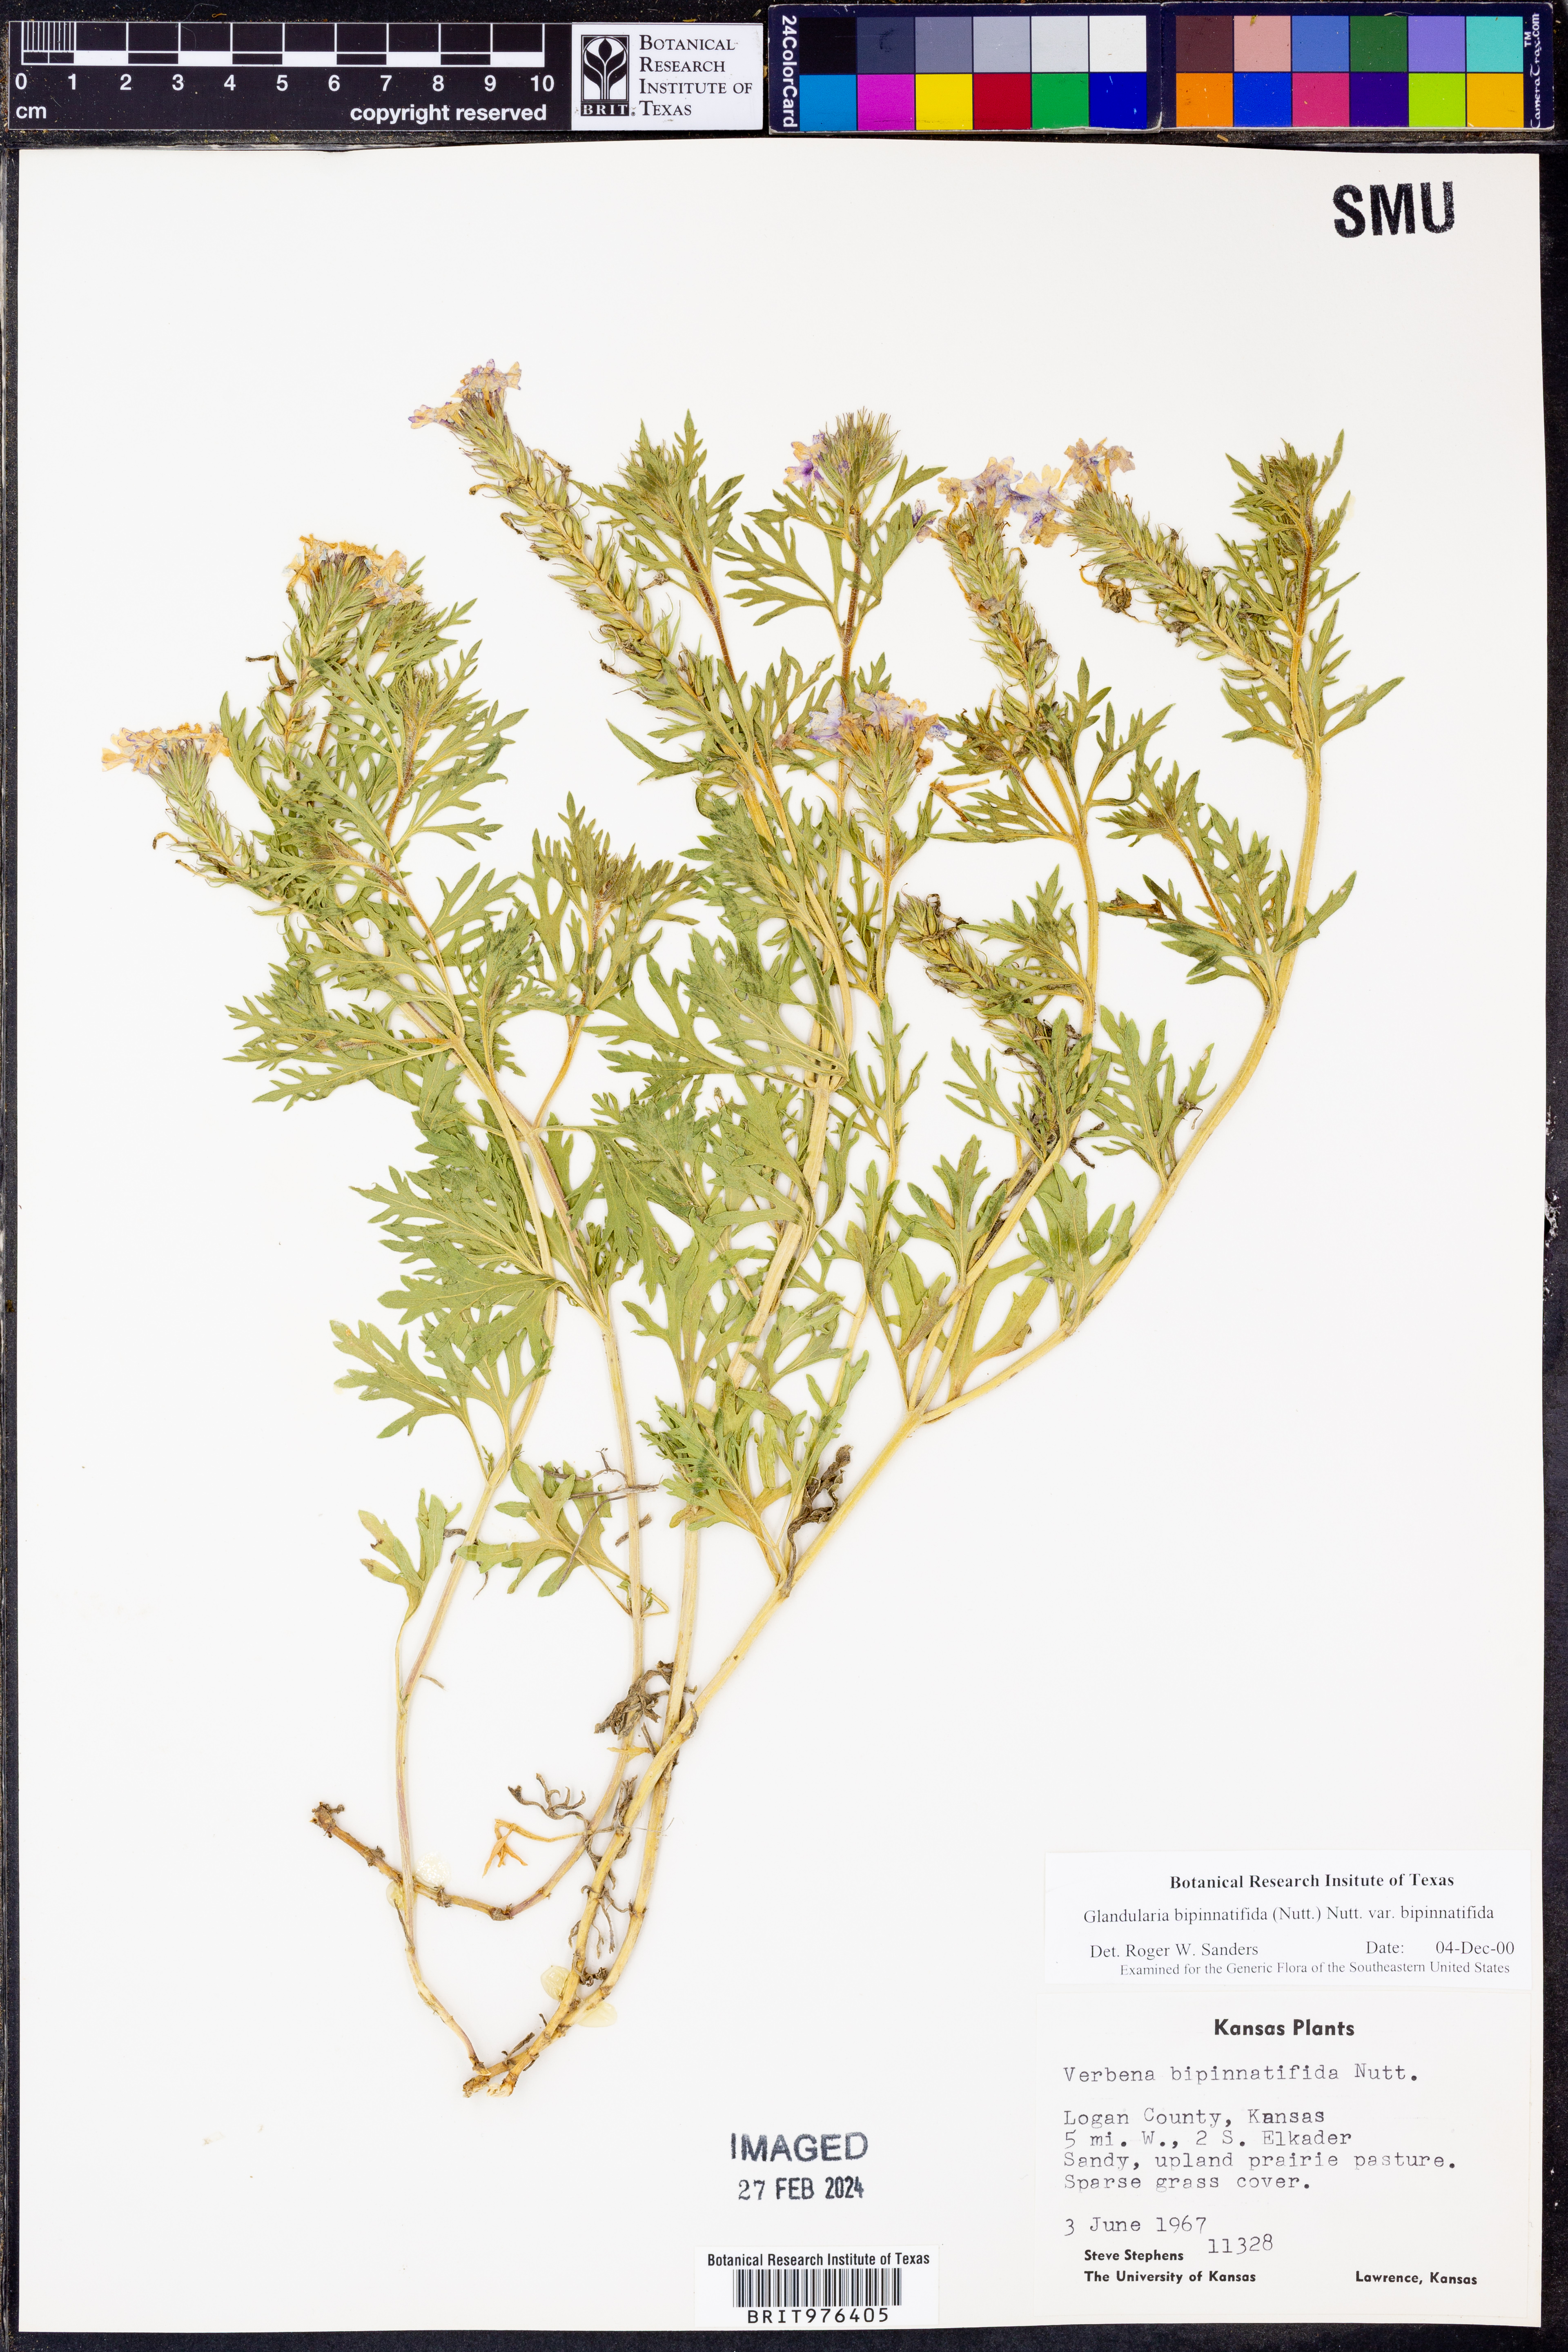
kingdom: Plantae
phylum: Tracheophyta
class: Magnoliopsida
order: Lamiales
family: Verbenaceae
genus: Verbena
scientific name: Verbena bipinnatifida
